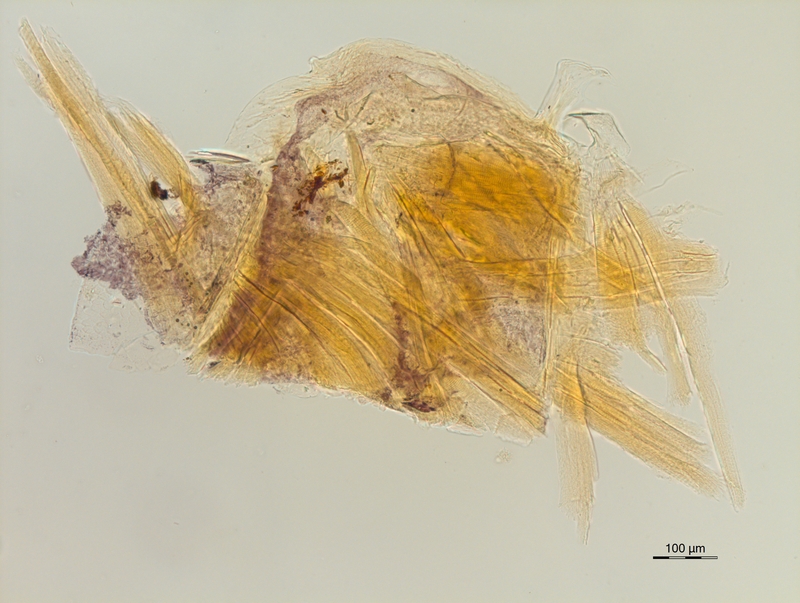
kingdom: Animalia
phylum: Arthropoda
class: Diplopoda
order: Chordeumatida
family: Craspedosomatidae
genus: Ochogona
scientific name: Ochogona caroli
